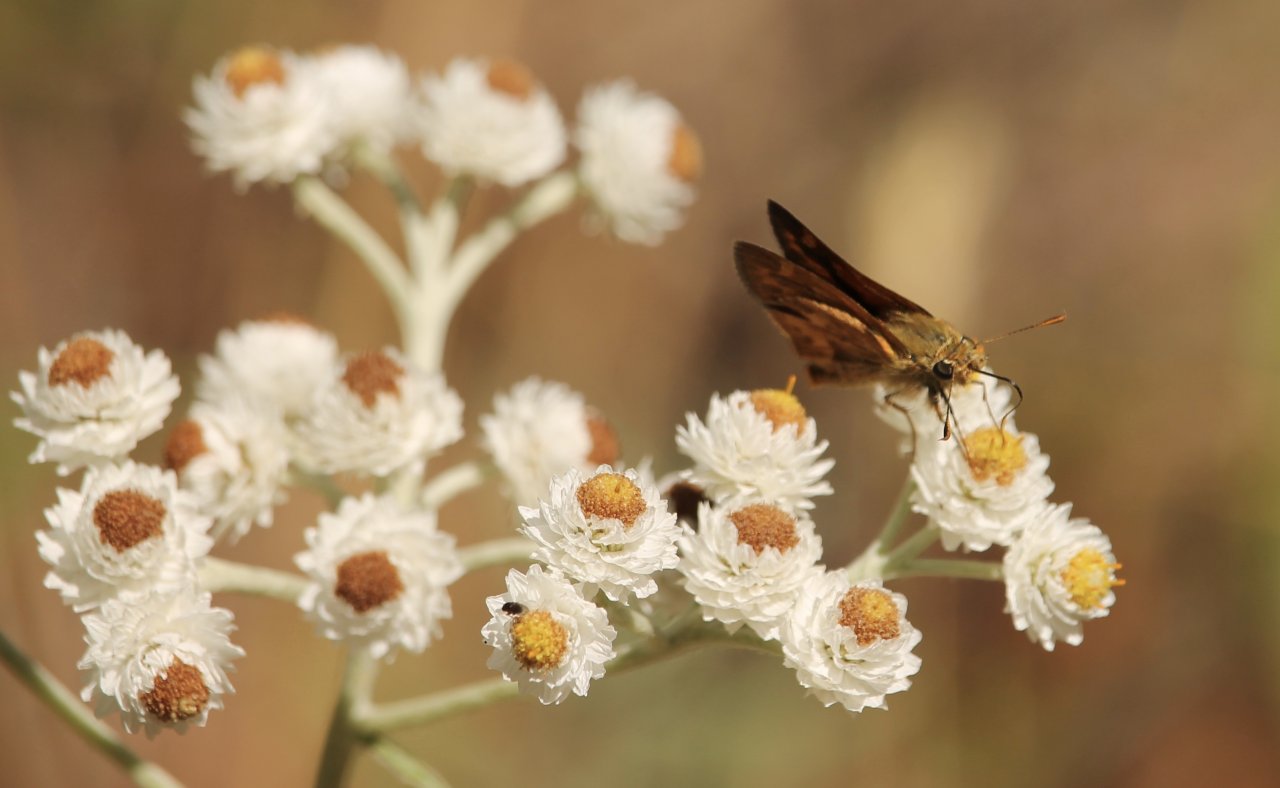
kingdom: Animalia
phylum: Arthropoda
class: Insecta
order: Lepidoptera
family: Hesperiidae
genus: Ochlodes
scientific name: Ochlodes sylvanoides
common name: Woodland Skipper
